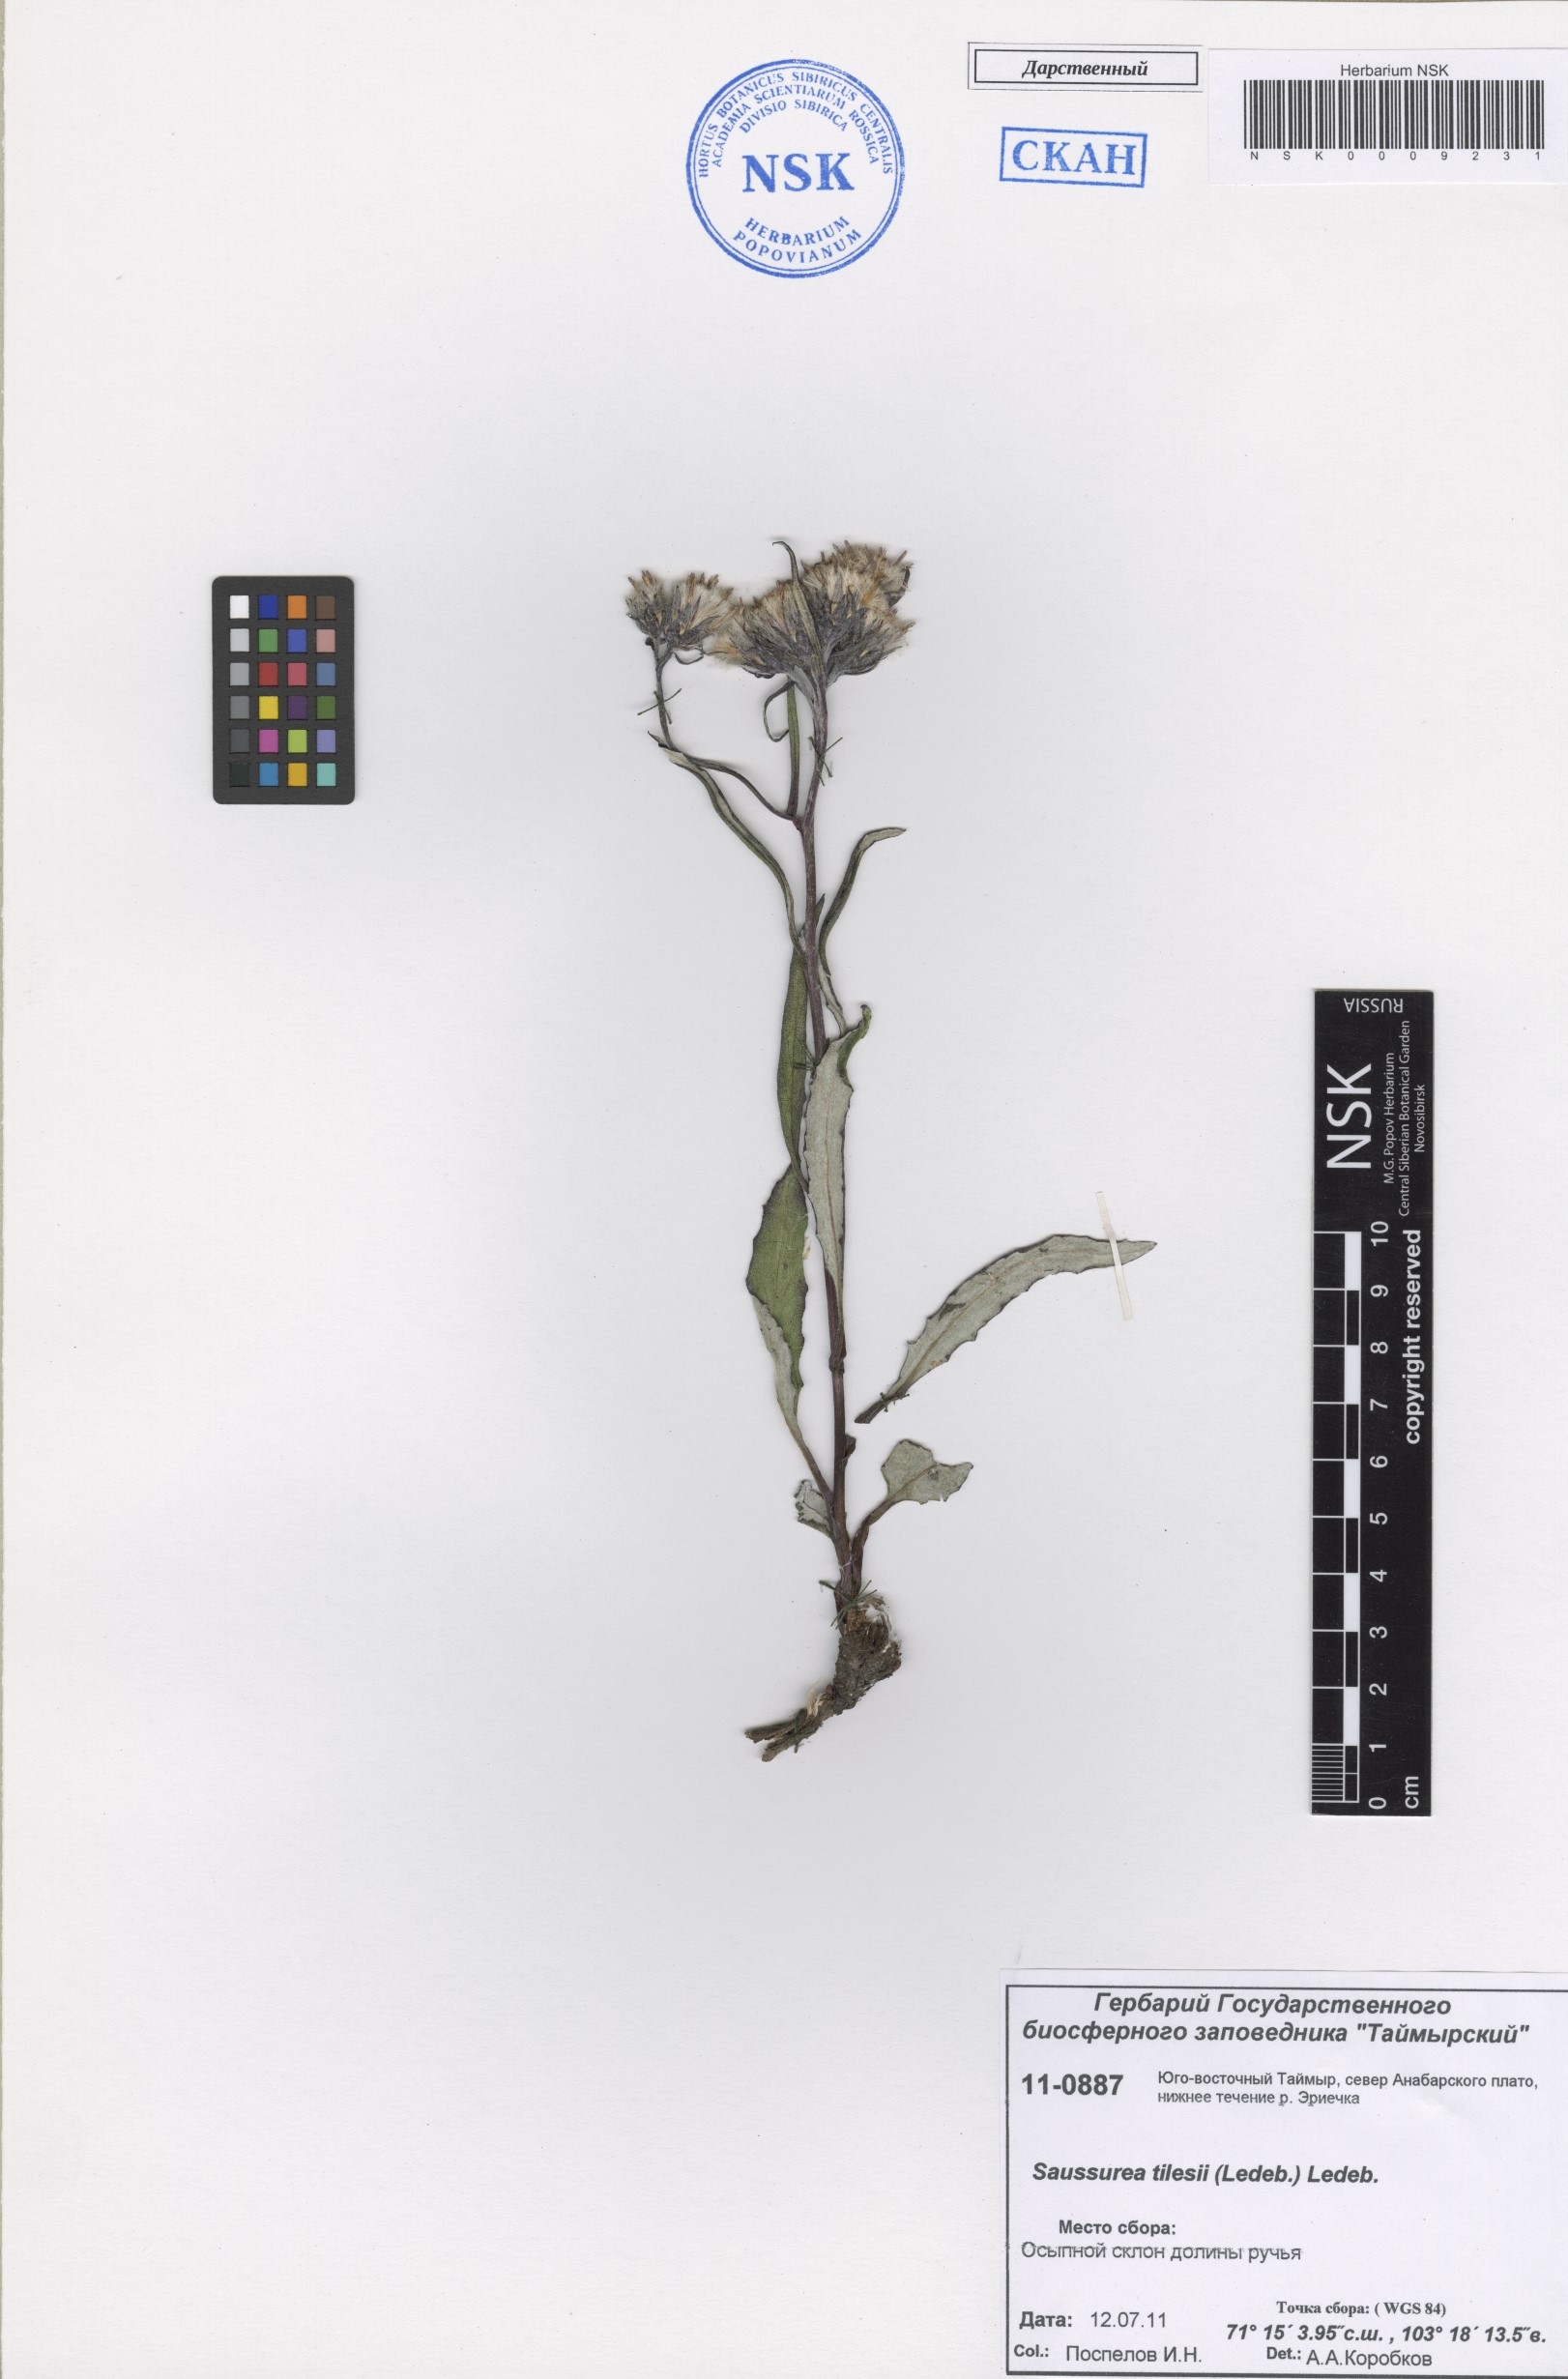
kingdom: Plantae
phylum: Tracheophyta
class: Magnoliopsida
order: Asterales
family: Asteraceae
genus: Saussurea
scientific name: Saussurea tilesii
